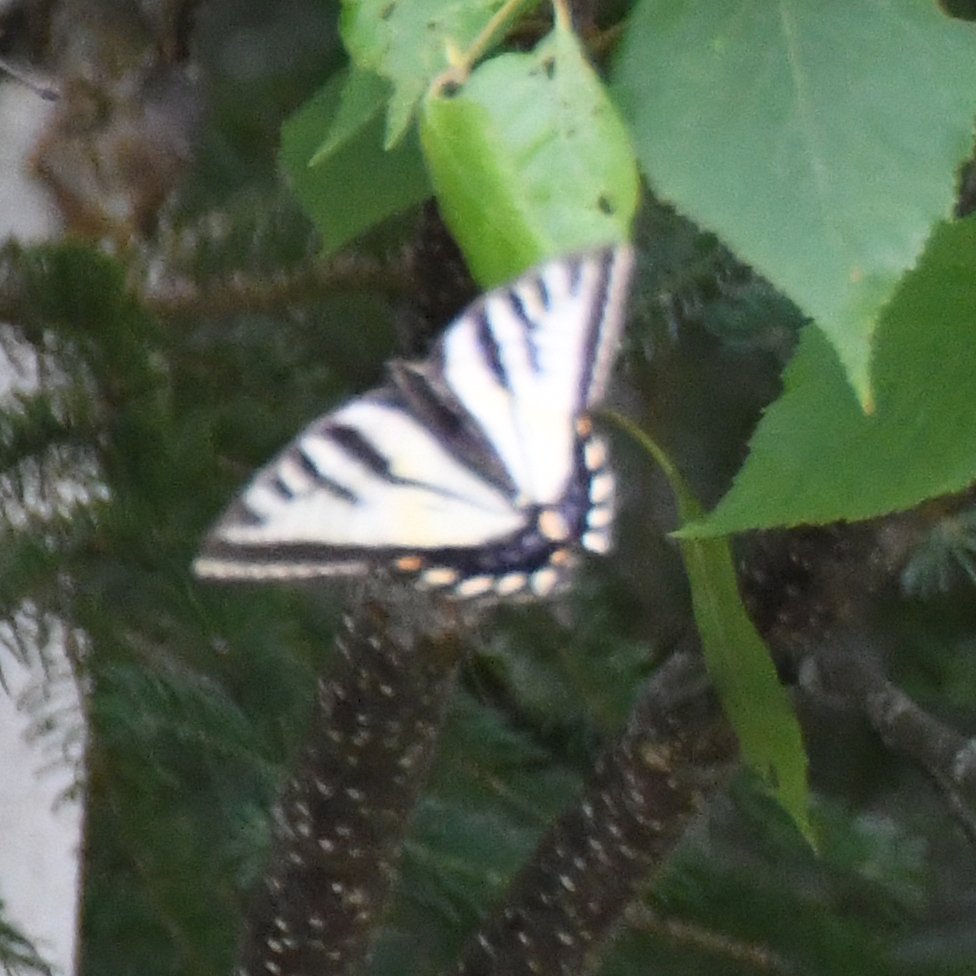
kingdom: Animalia
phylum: Arthropoda
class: Insecta
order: Lepidoptera
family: Papilionidae
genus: Pterourus
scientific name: Pterourus canadensis
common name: Canadian Tiger Swallowtail
